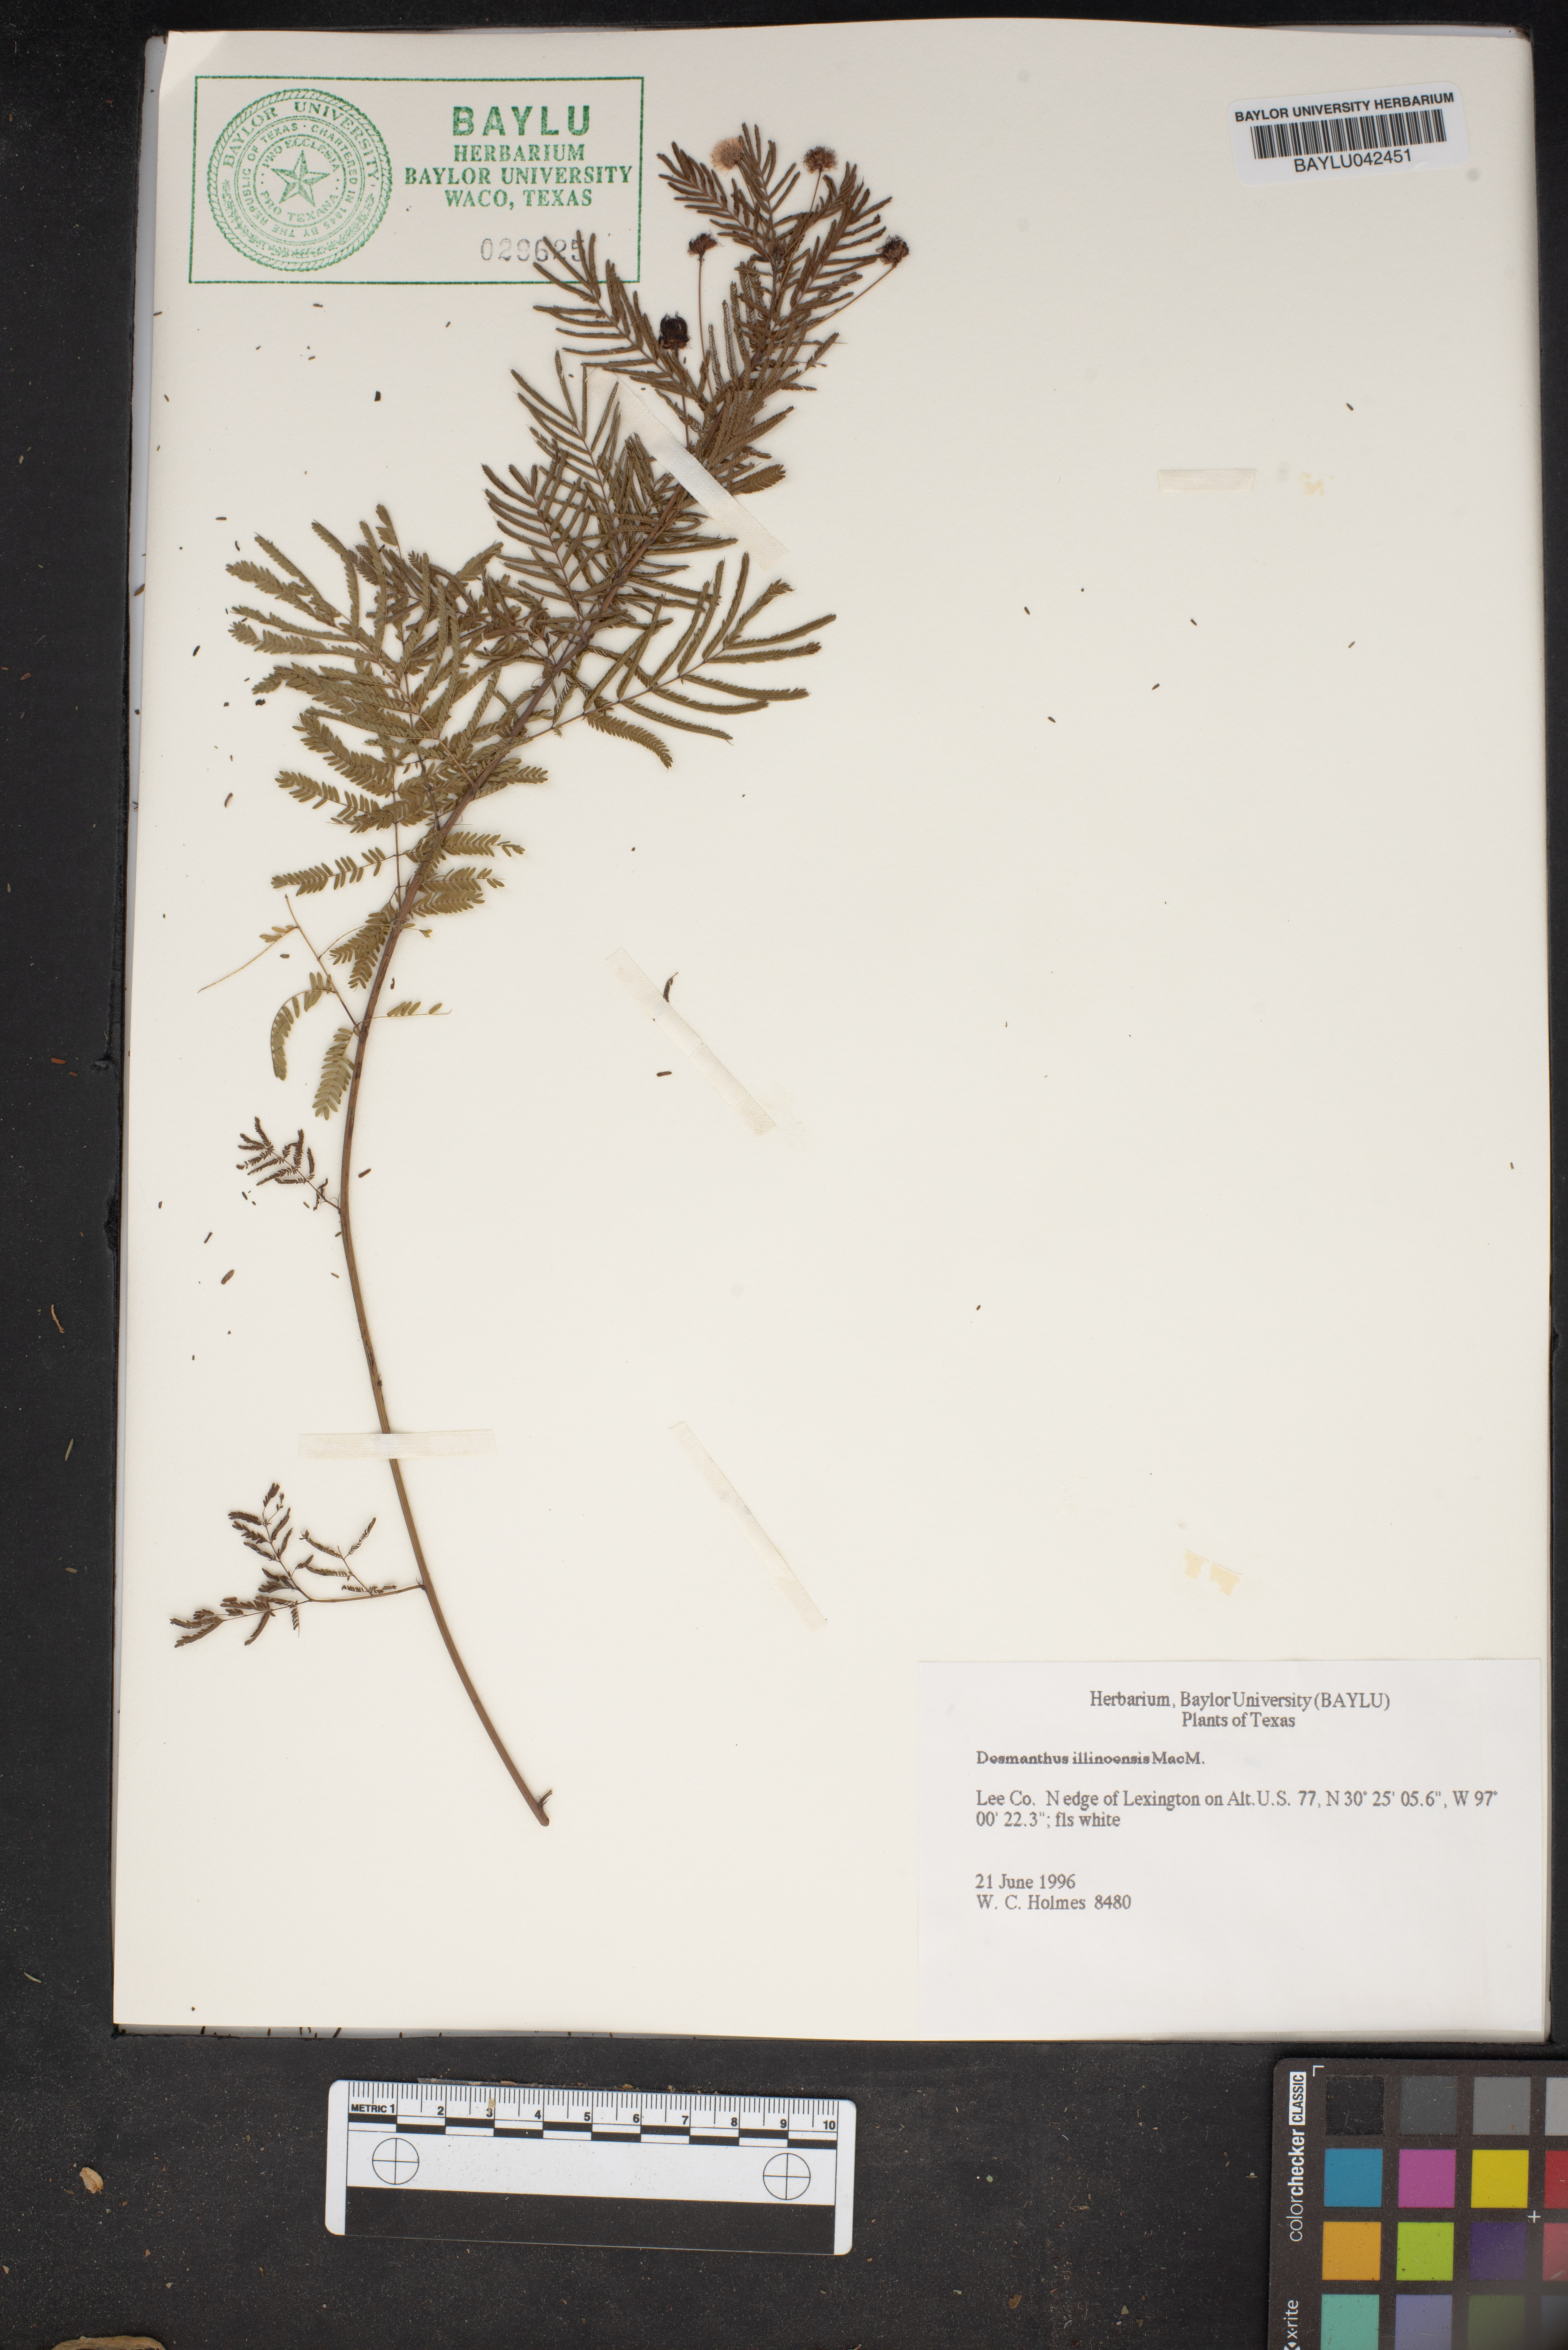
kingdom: Plantae
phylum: Tracheophyta
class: Magnoliopsida
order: Fabales
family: Fabaceae
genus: Desmanthus
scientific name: Desmanthus illinoensis
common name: Illinois bundle-flower
